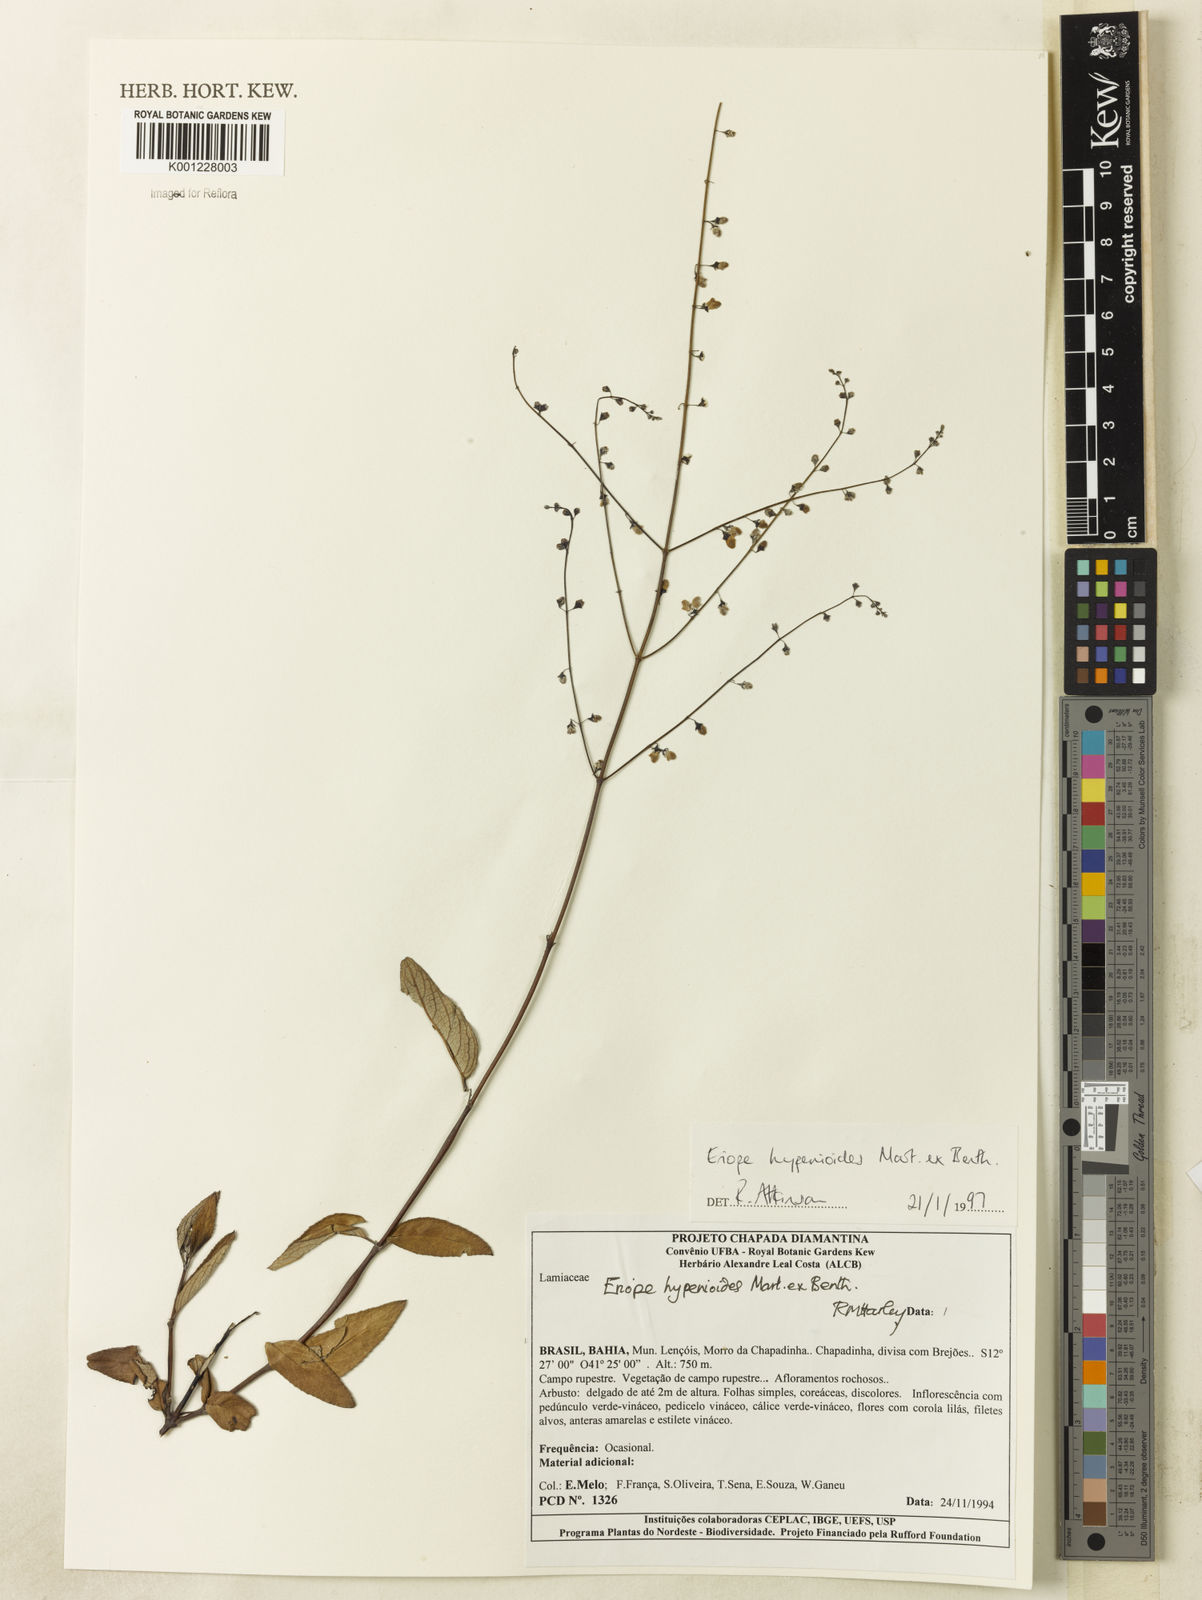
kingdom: Plantae
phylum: Tracheophyta
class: Magnoliopsida
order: Lamiales
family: Lamiaceae
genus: Eriope
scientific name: Eriope hypenioides
